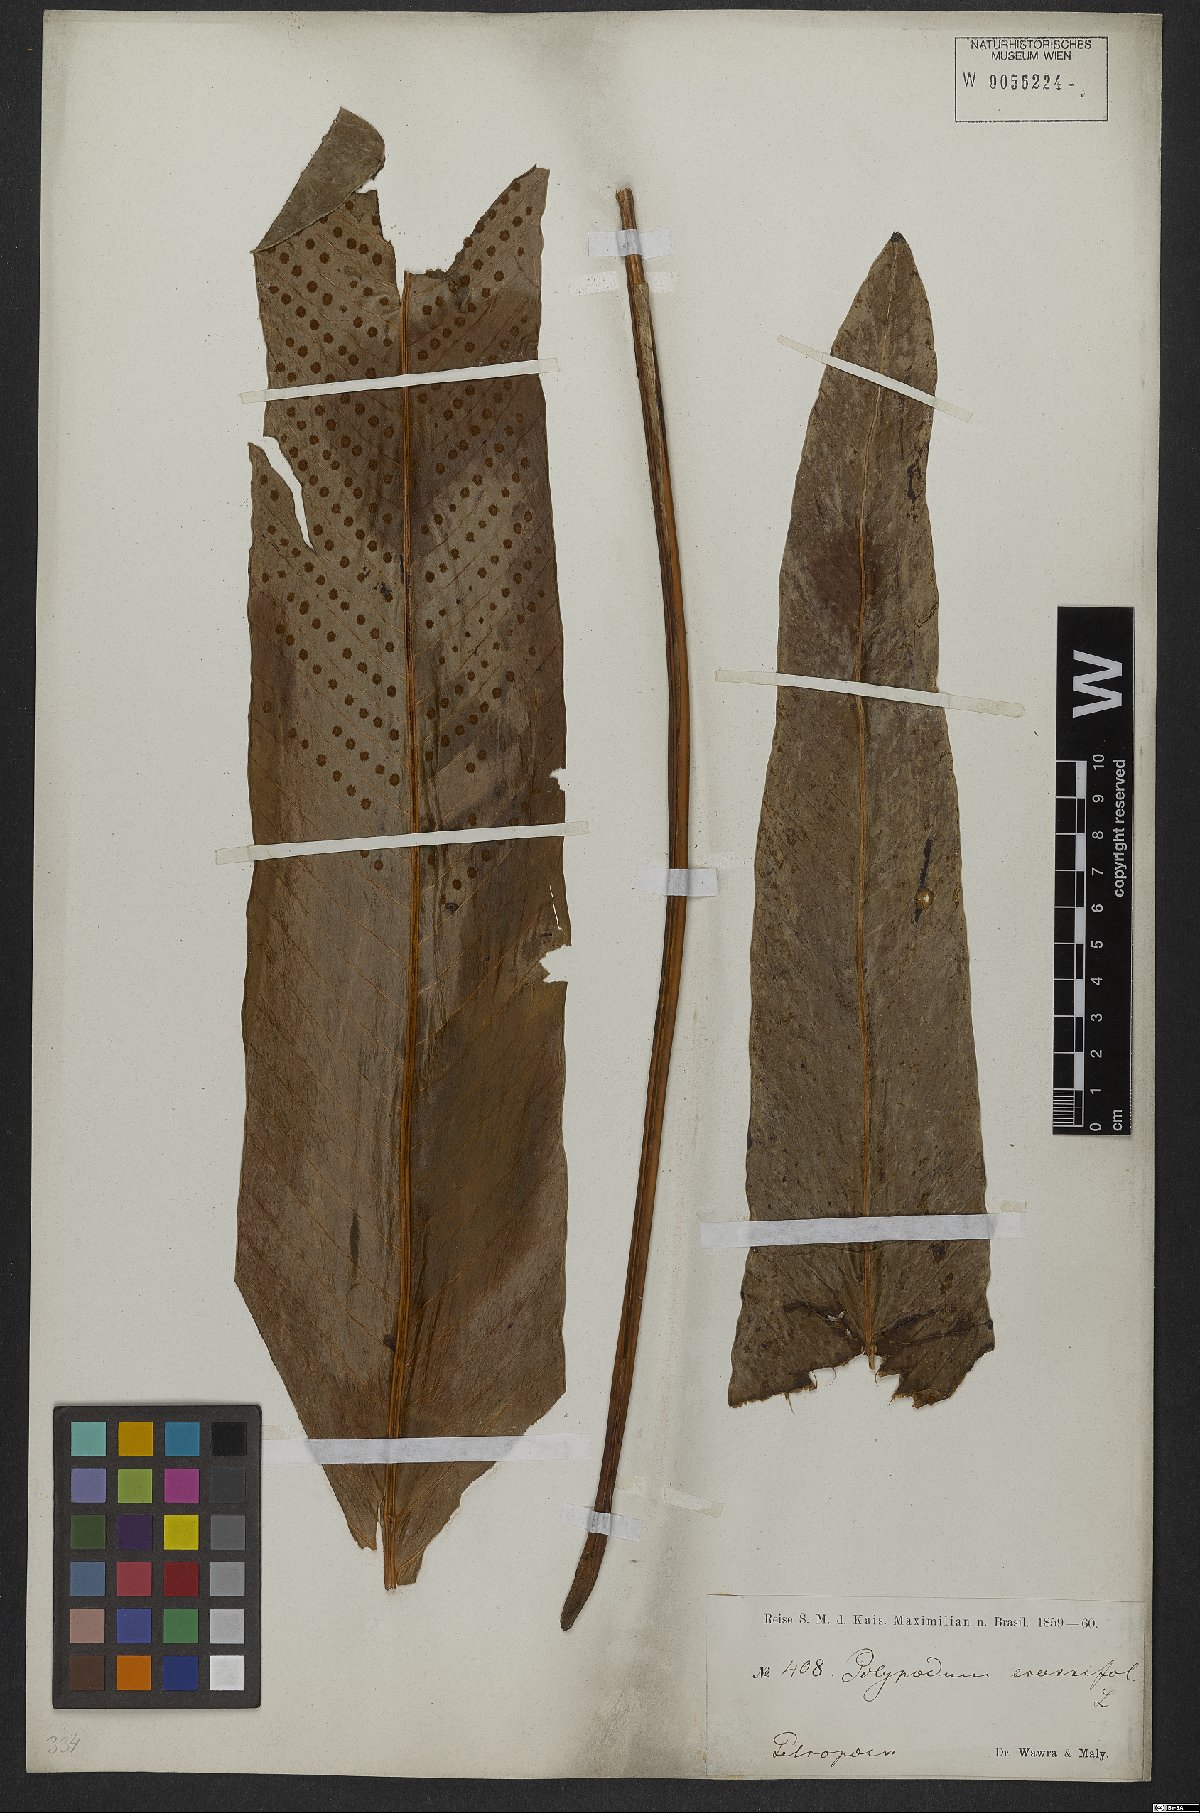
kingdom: Plantae
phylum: Tracheophyta
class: Polypodiopsida
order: Polypodiales
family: Polypodiaceae
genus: Niphidium
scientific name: Niphidium crassifolium
